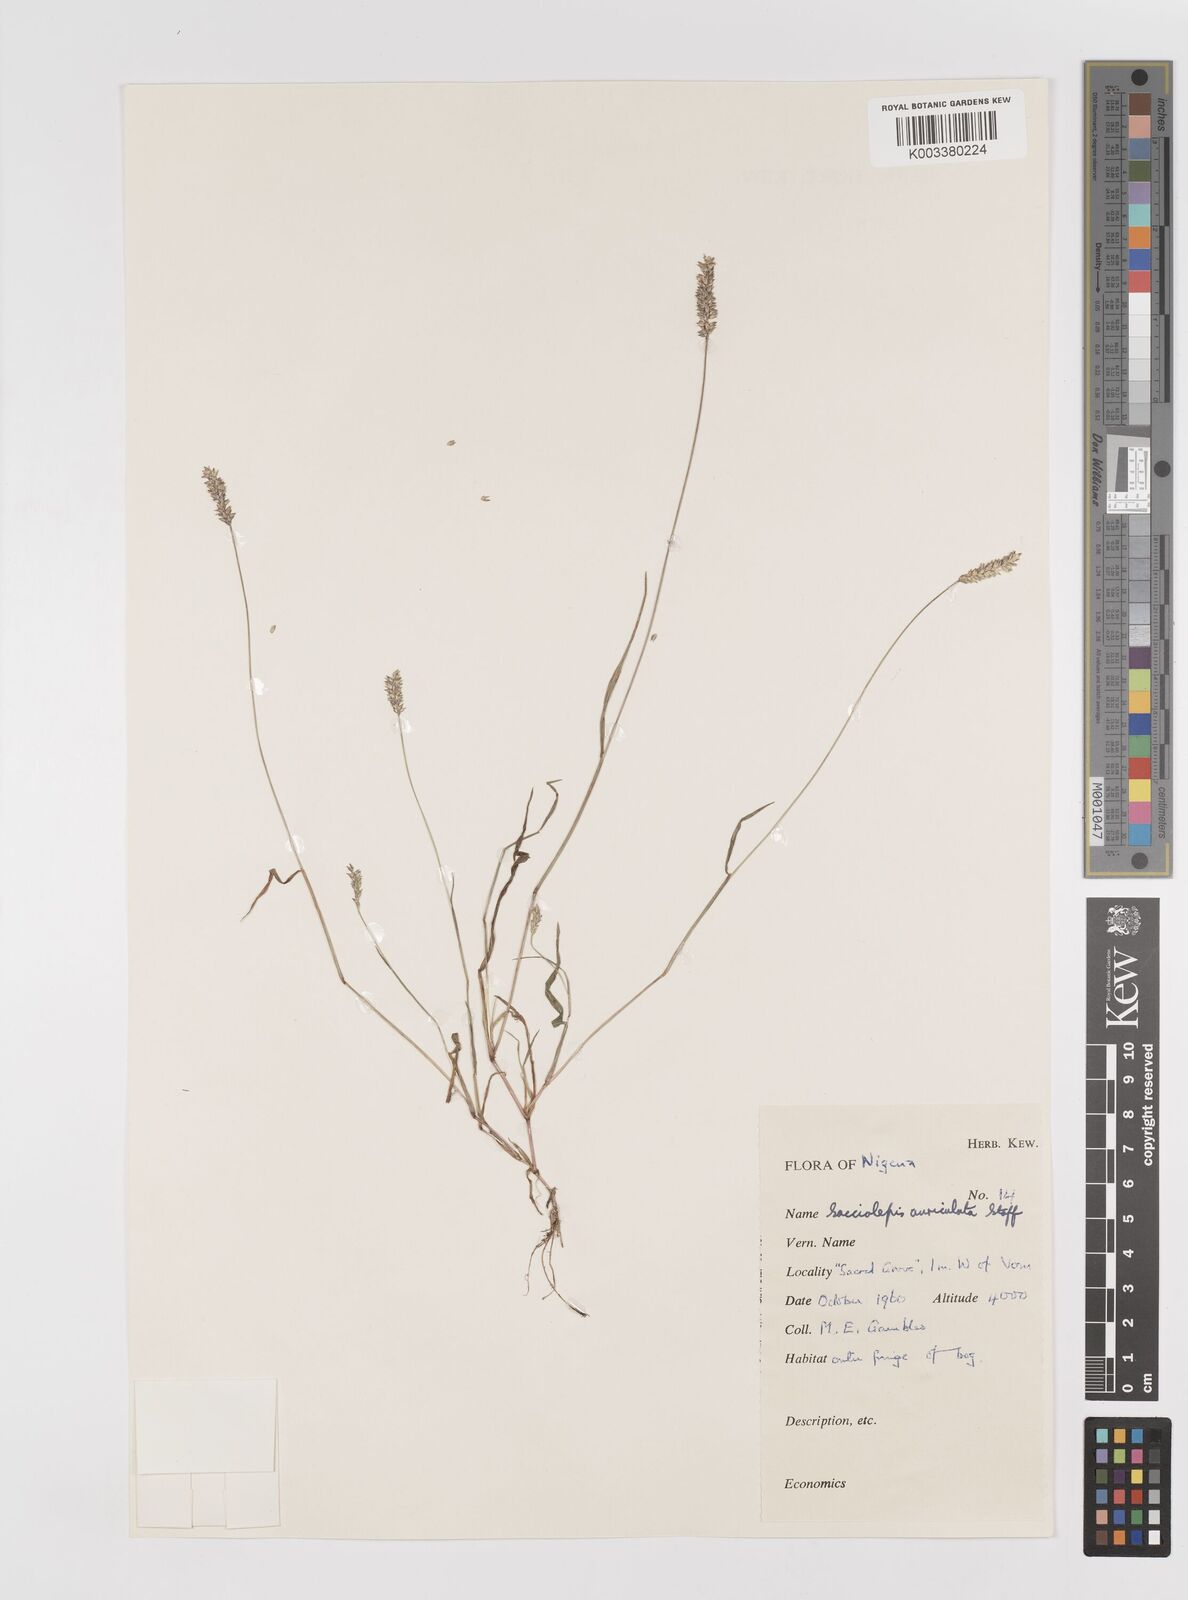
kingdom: Plantae
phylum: Tracheophyta
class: Liliopsida
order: Poales
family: Poaceae
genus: Sacciolepis
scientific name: Sacciolepis indica
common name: Glenwoodgrass
